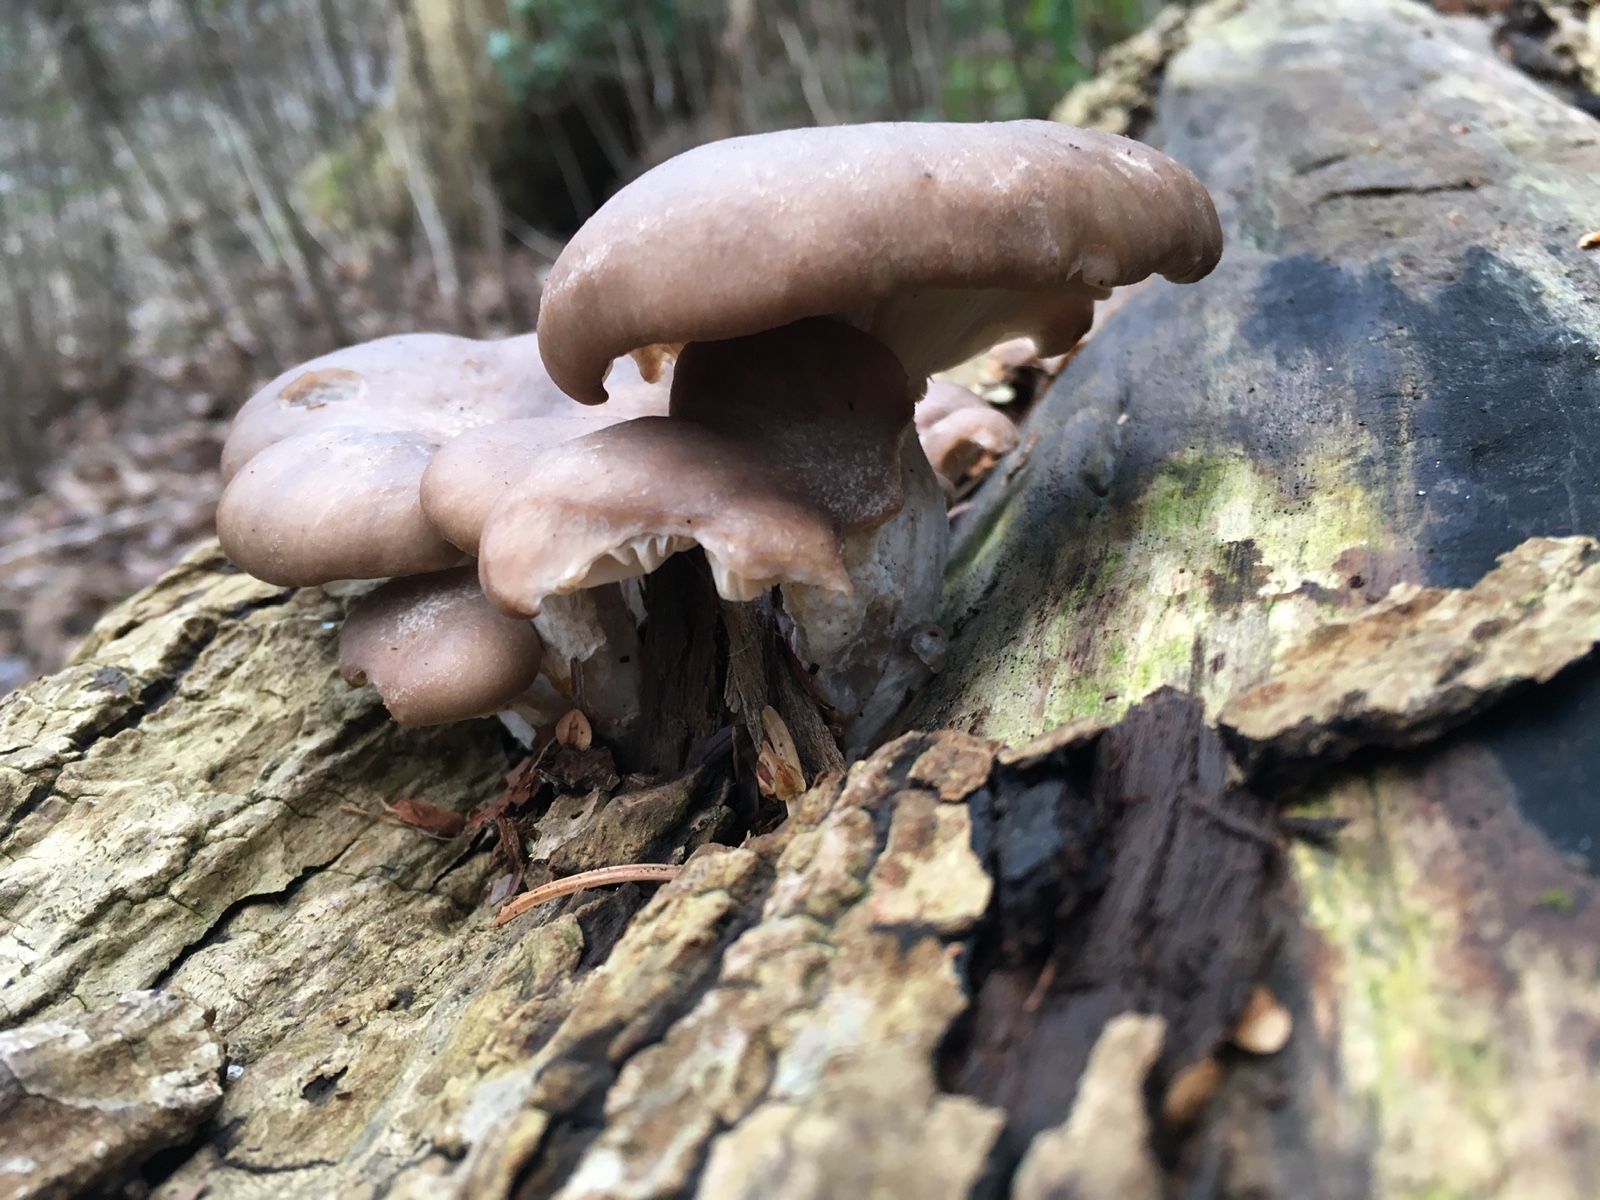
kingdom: Fungi
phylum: Basidiomycota
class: Agaricomycetes
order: Agaricales
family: Pleurotaceae
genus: Pleurotus
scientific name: Pleurotus ostreatus
